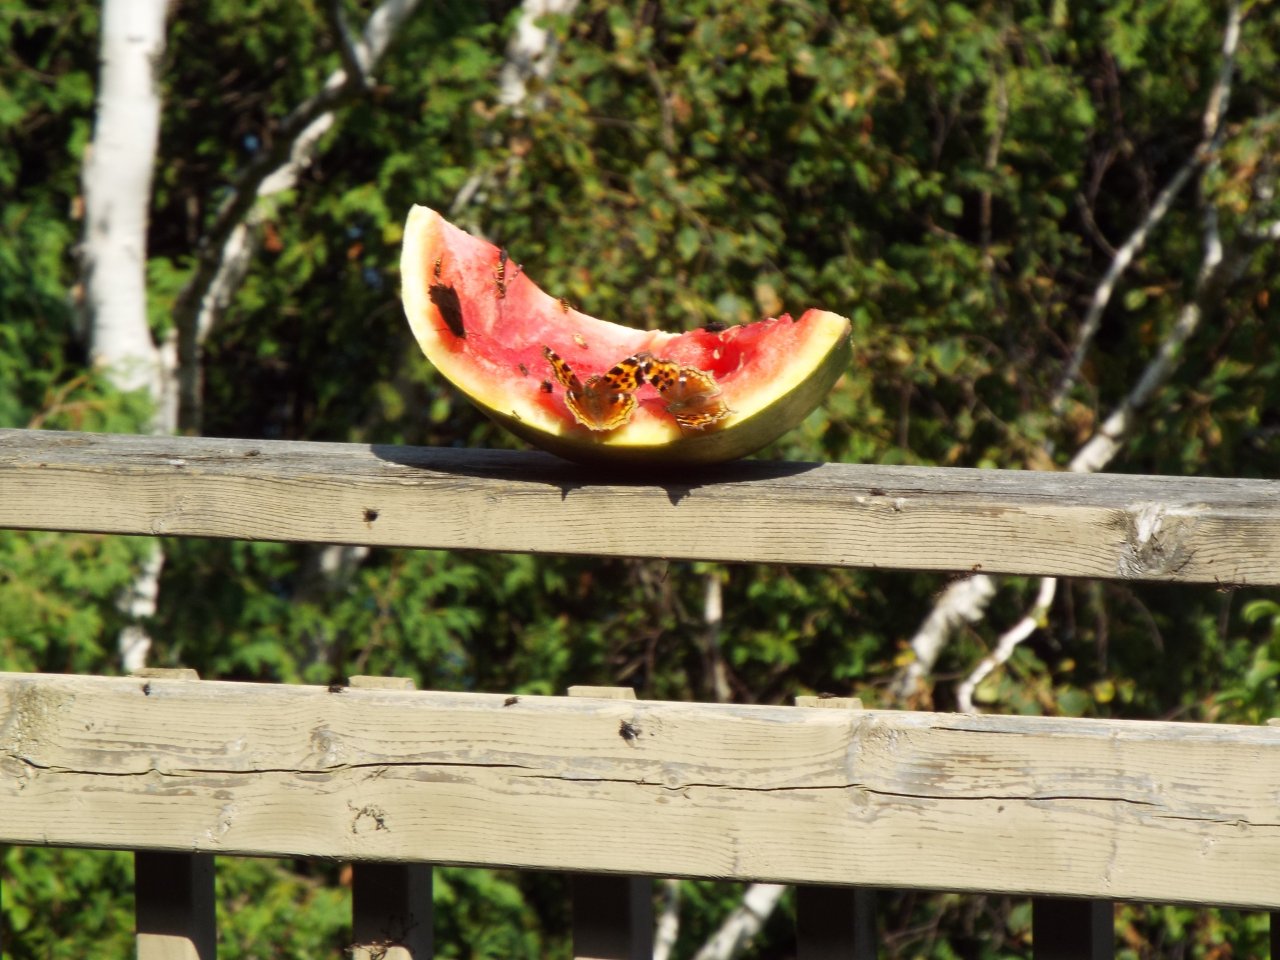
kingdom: Animalia
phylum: Arthropoda
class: Insecta
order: Lepidoptera
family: Nymphalidae
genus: Polygonia
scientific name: Polygonia vaualbum
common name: Compton Tortoiseshell
